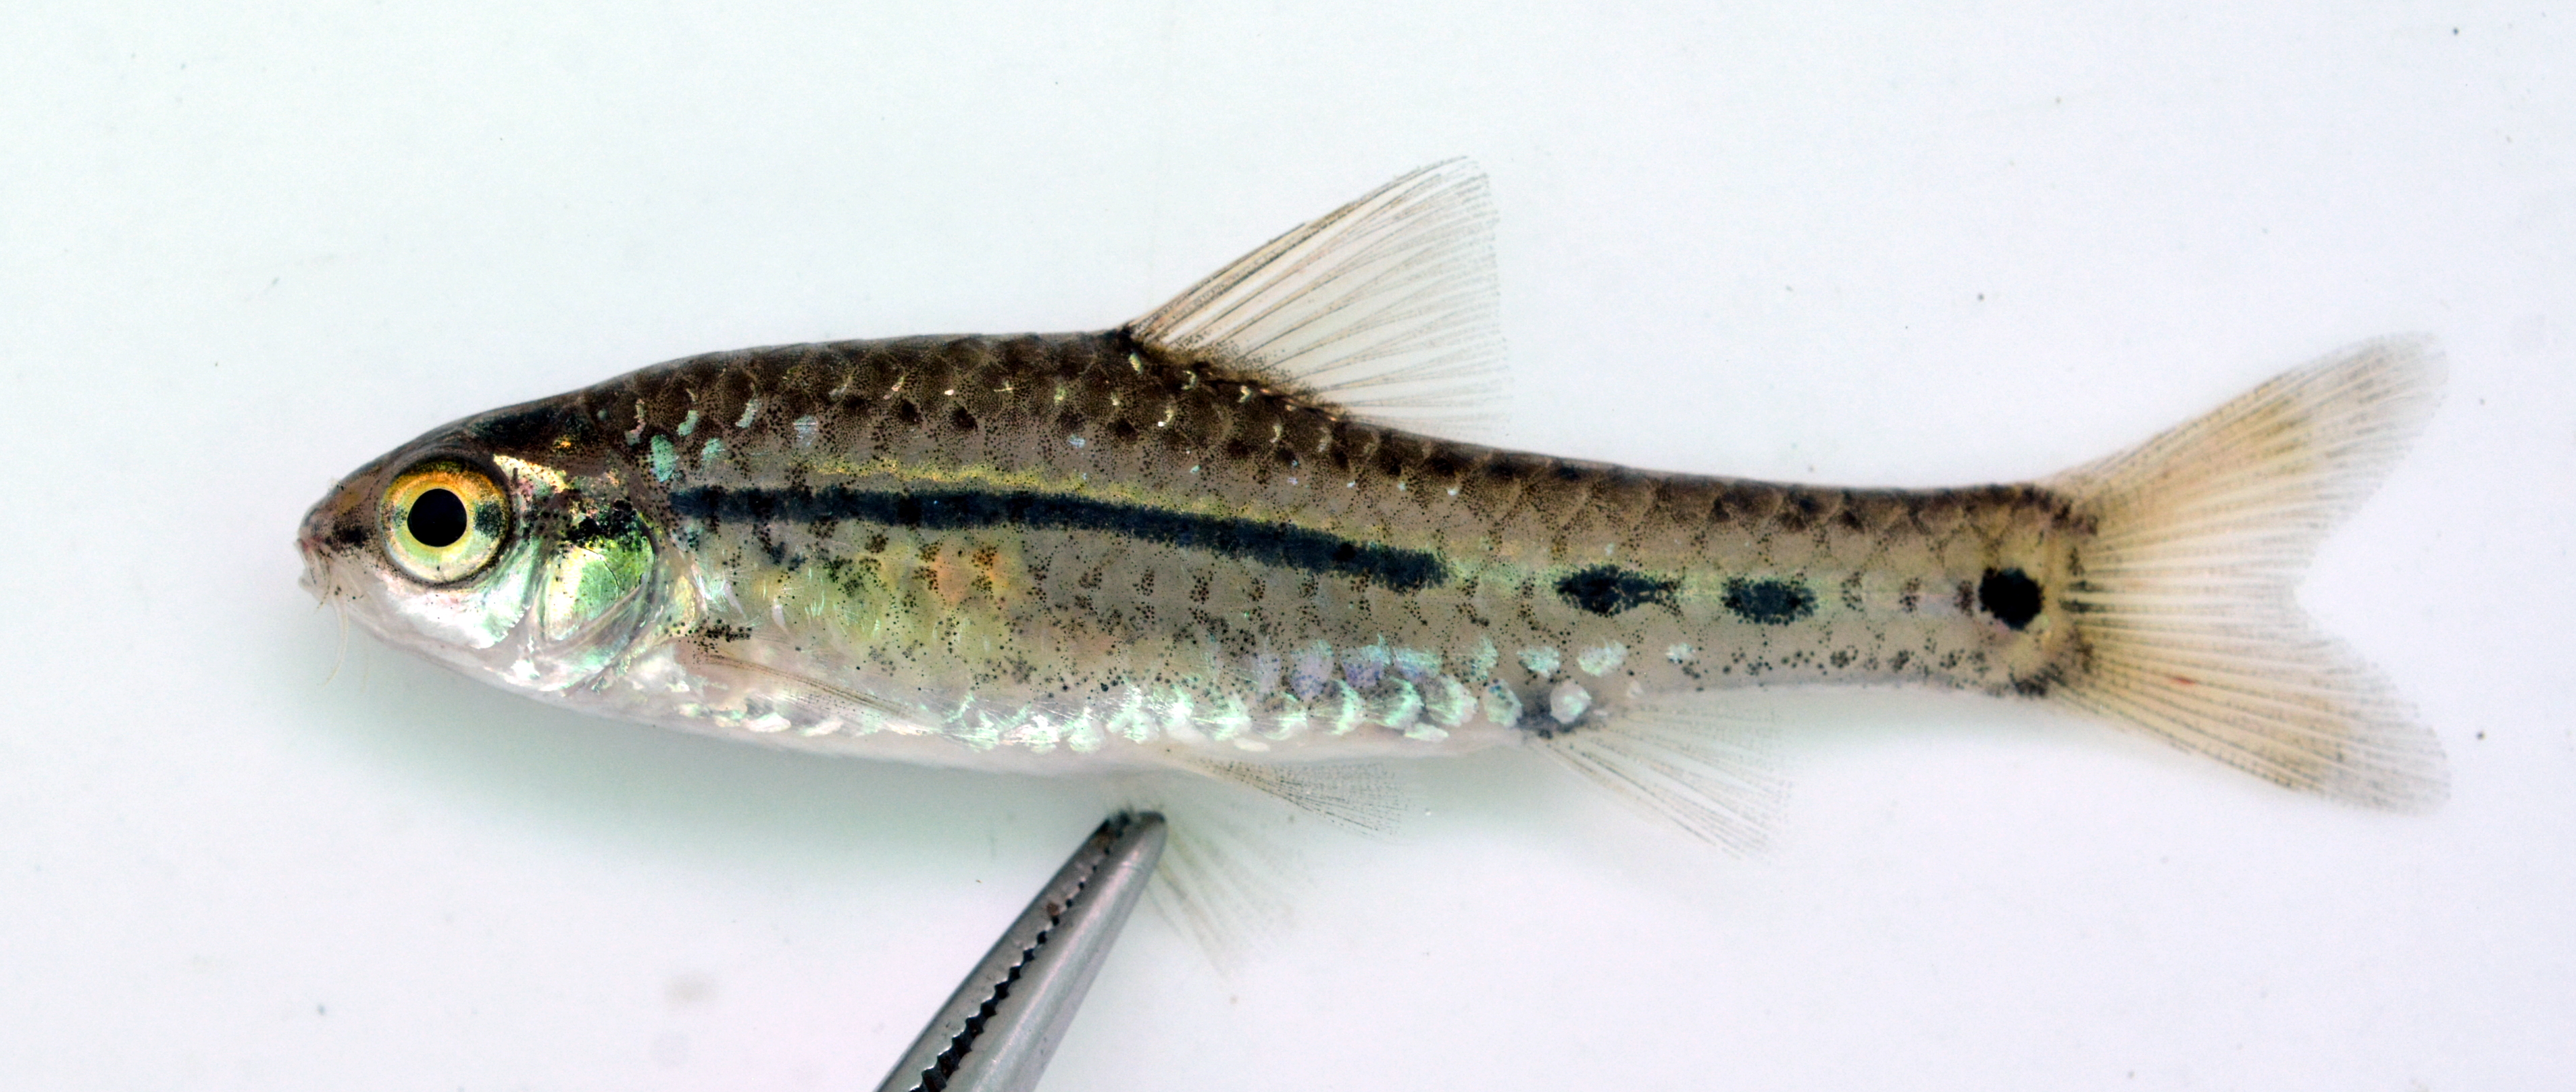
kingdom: Animalia
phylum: Chordata
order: Cypriniformes
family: Cyprinidae
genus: Enteromius
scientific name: Enteromius
